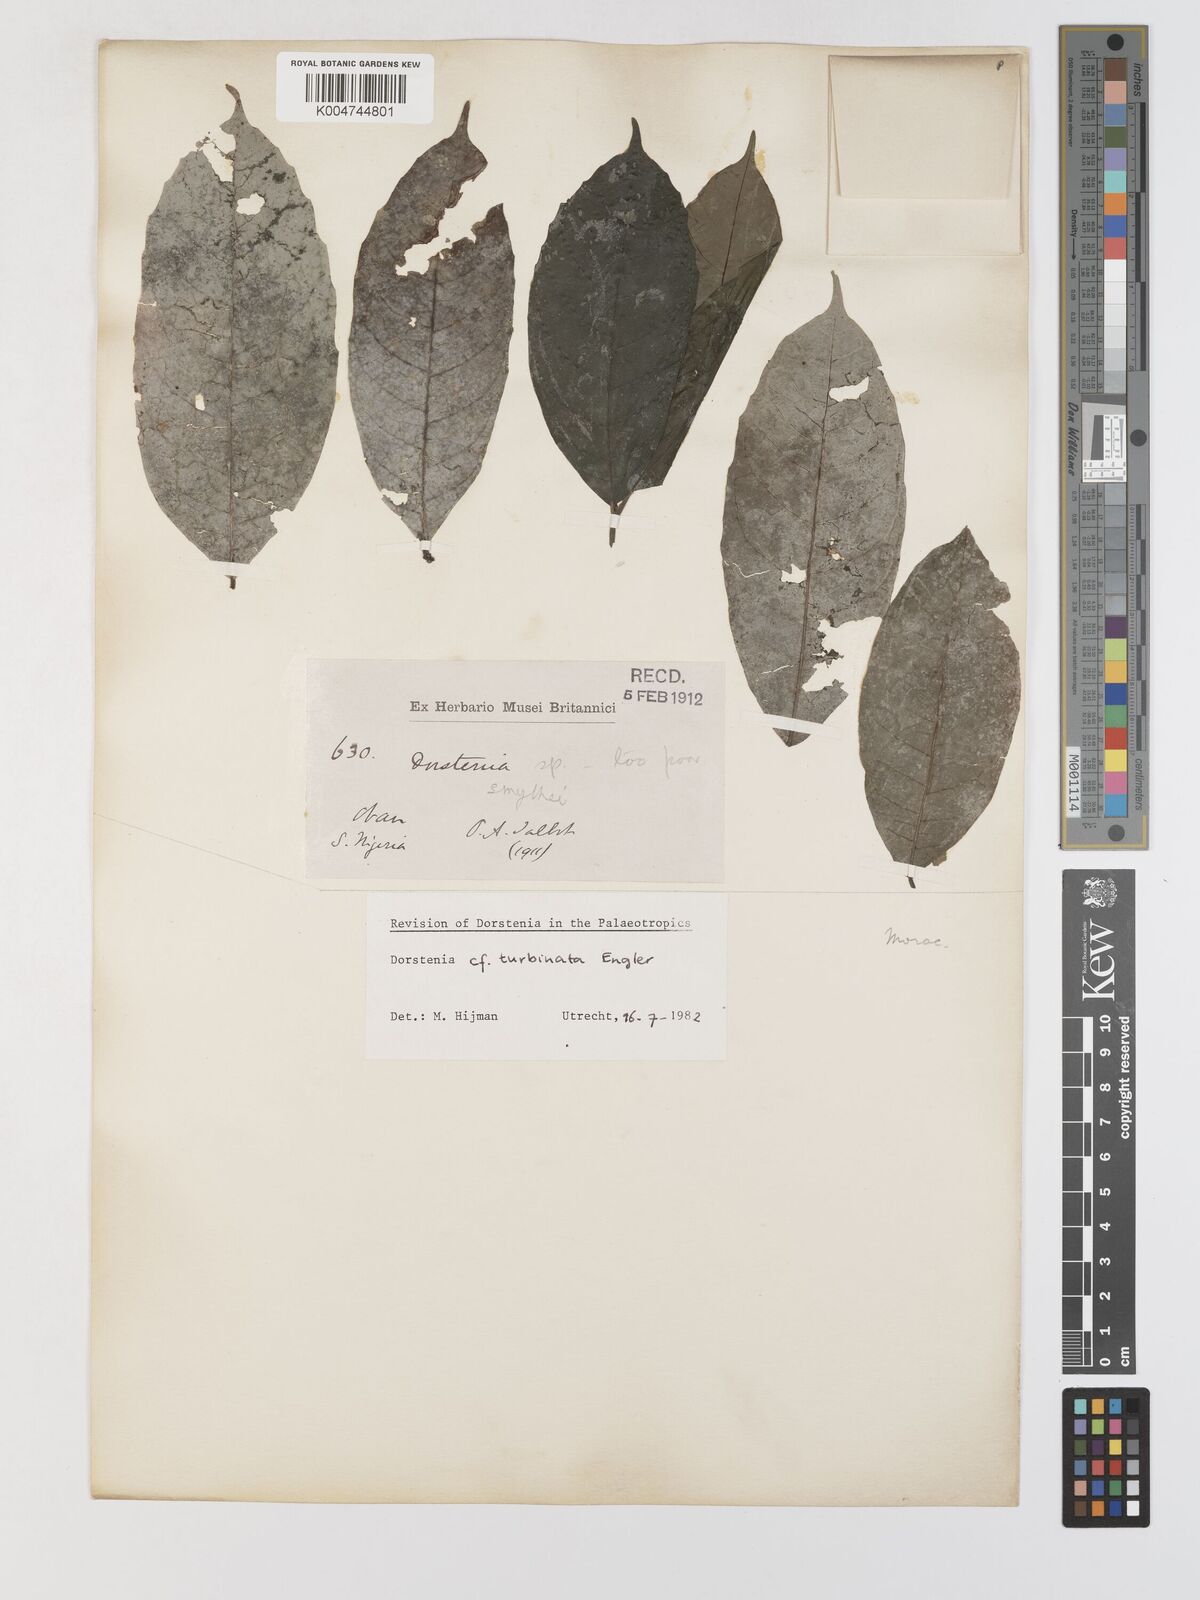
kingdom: Plantae
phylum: Tracheophyta
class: Magnoliopsida
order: Rosales
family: Moraceae
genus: Dorstenia
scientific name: Dorstenia
